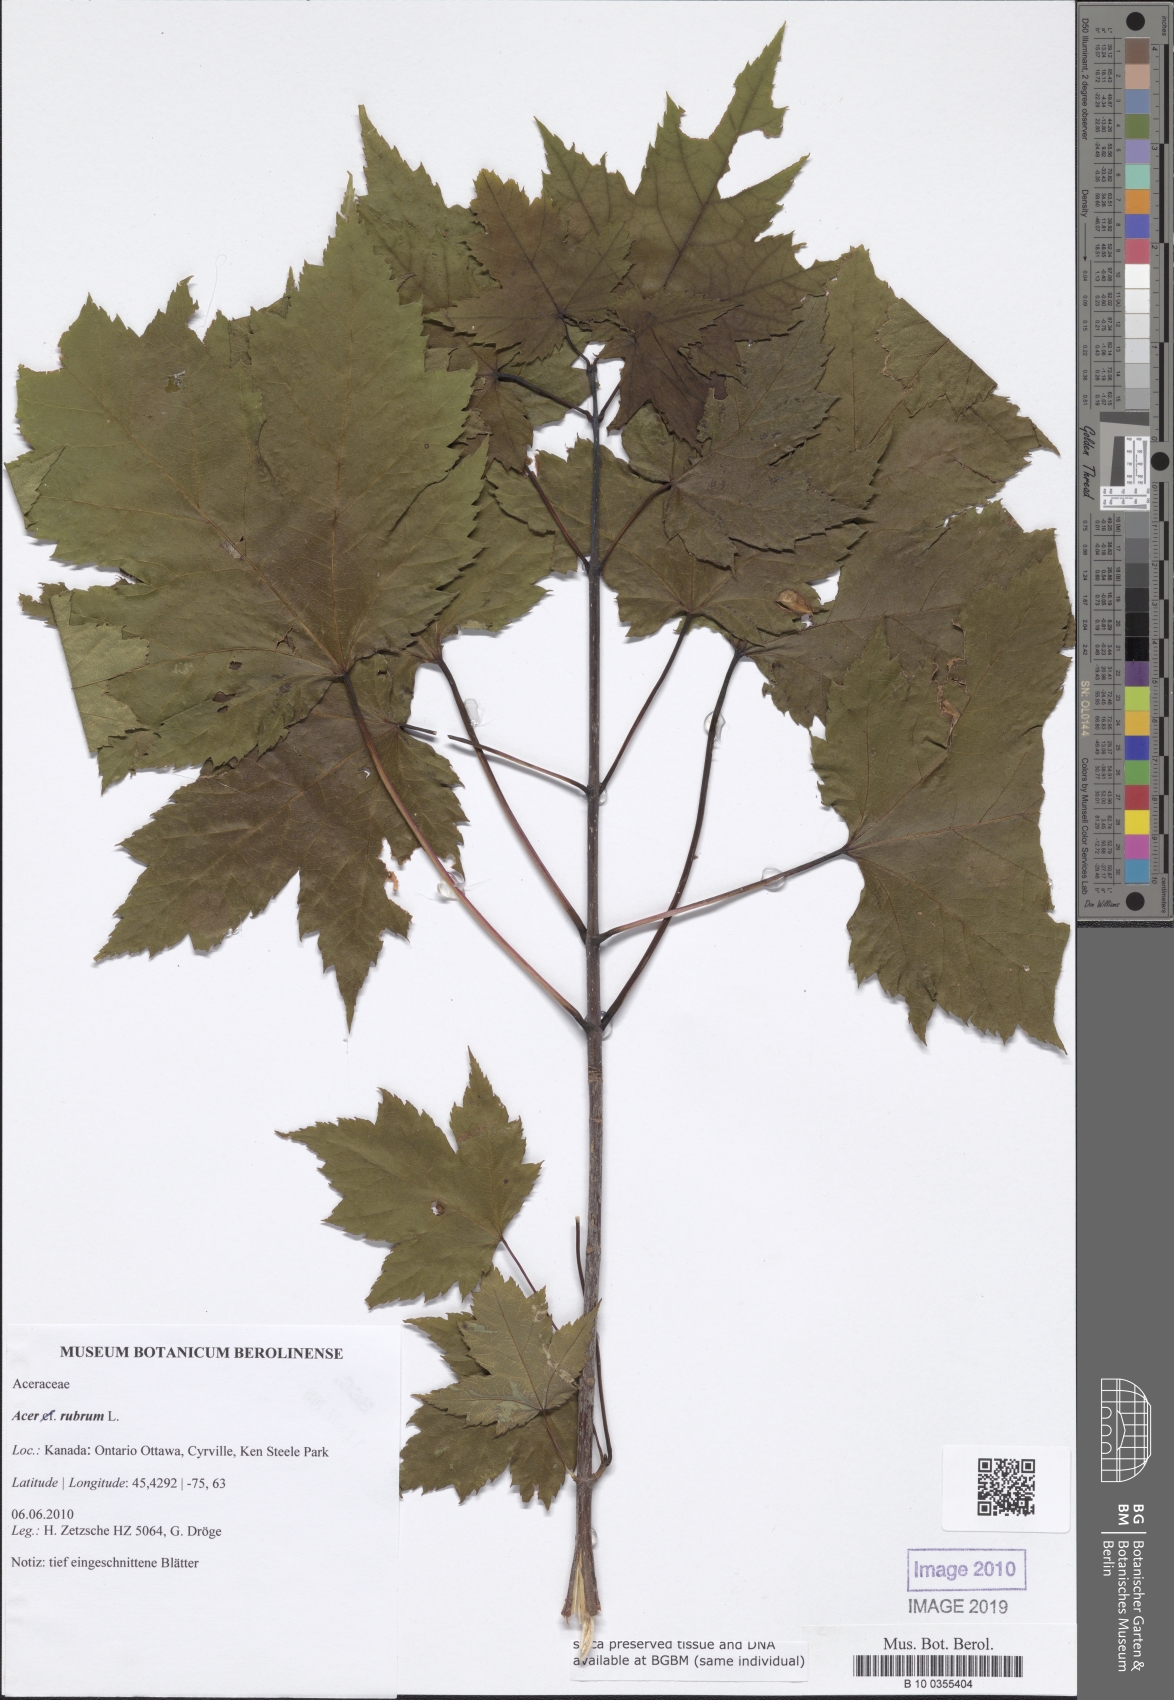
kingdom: Plantae
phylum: Tracheophyta
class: Magnoliopsida
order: Sapindales
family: Sapindaceae
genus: Acer
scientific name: Acer rubrum
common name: Red maple
